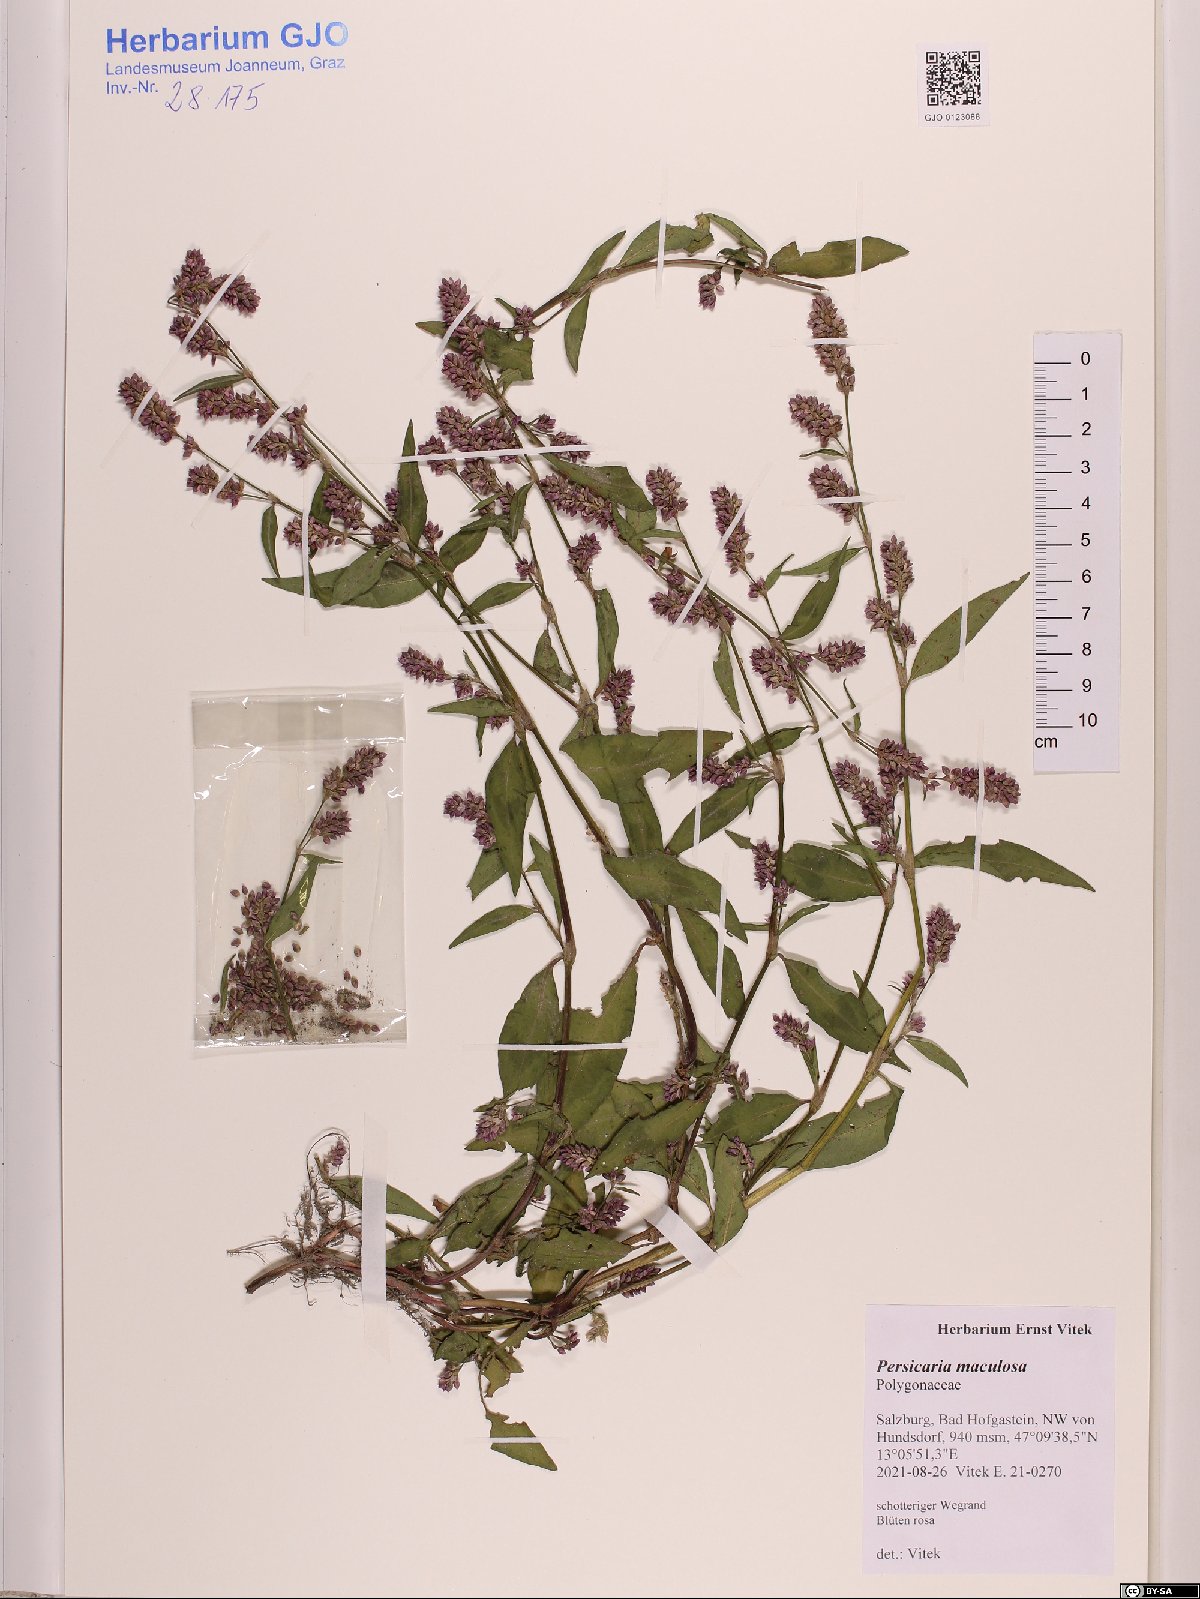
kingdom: Plantae
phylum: Tracheophyta
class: Magnoliopsida
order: Caryophyllales
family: Polygonaceae
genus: Persicaria
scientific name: Persicaria maculosa
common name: Redshank
